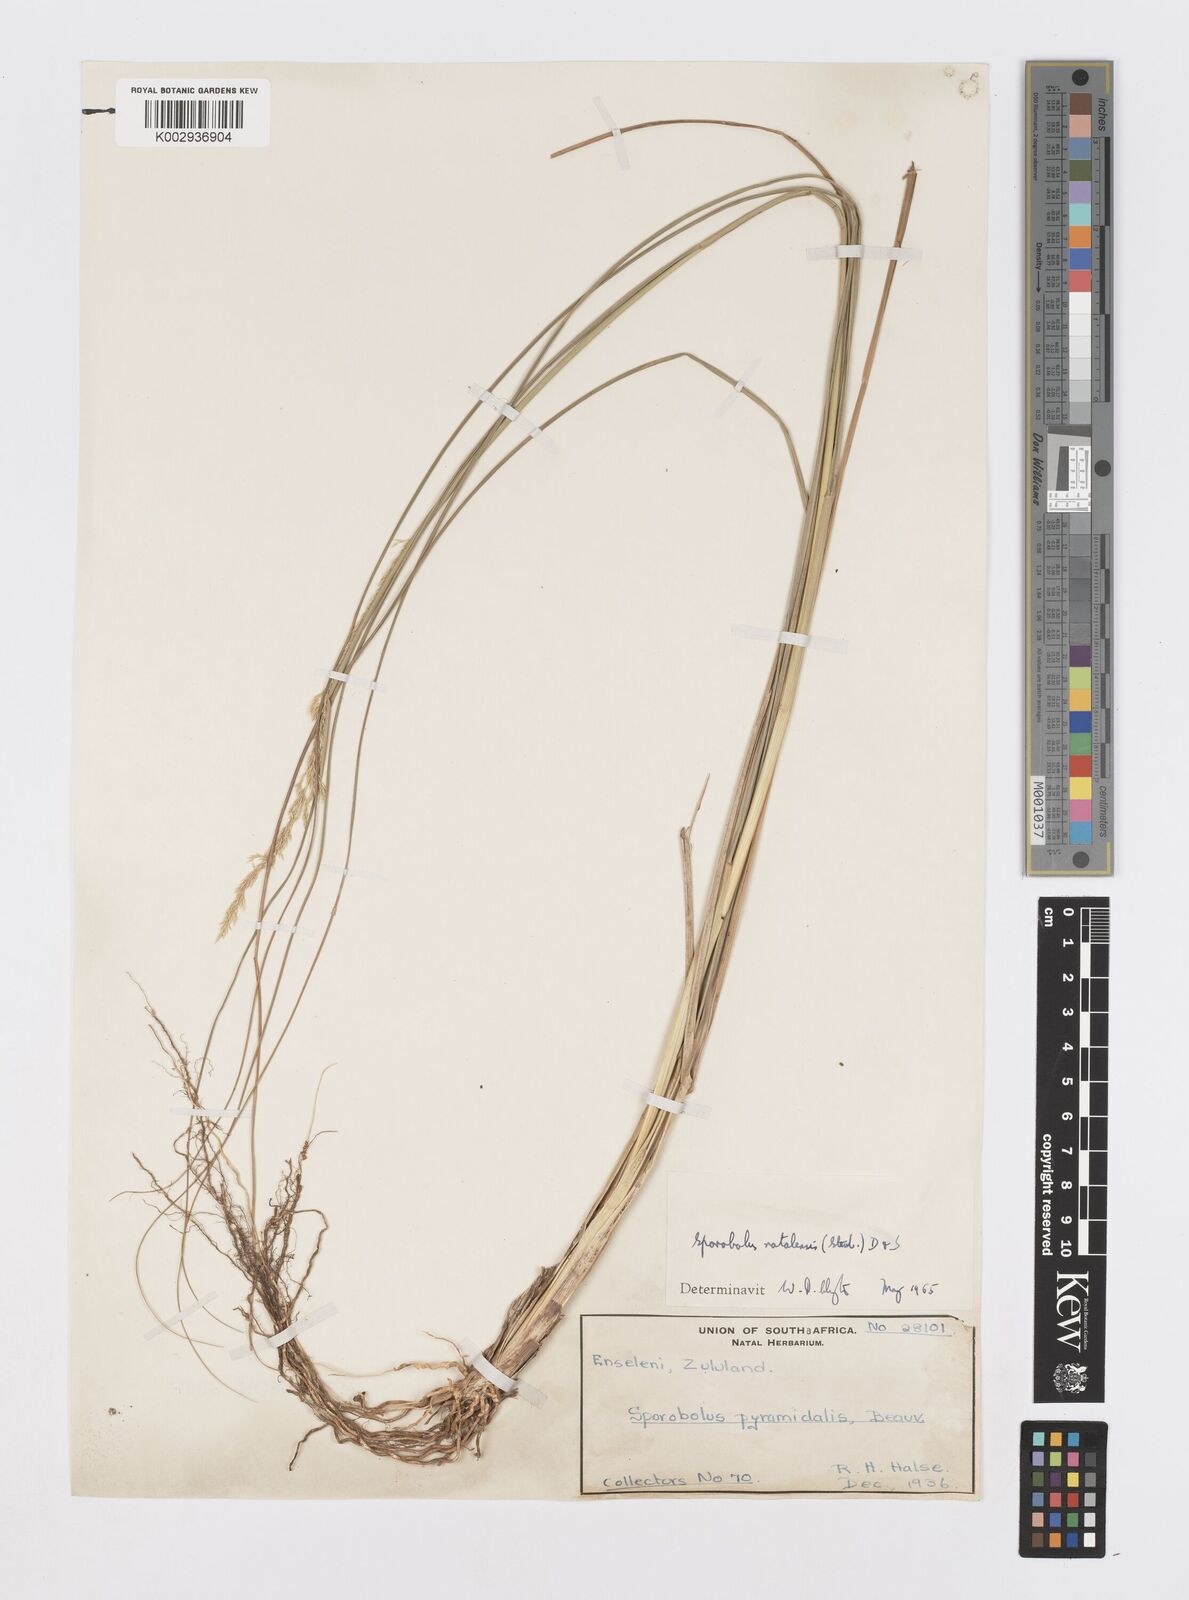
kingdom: Plantae
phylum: Tracheophyta
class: Liliopsida
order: Poales
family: Poaceae
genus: Sporobolus
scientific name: Sporobolus natalensis
